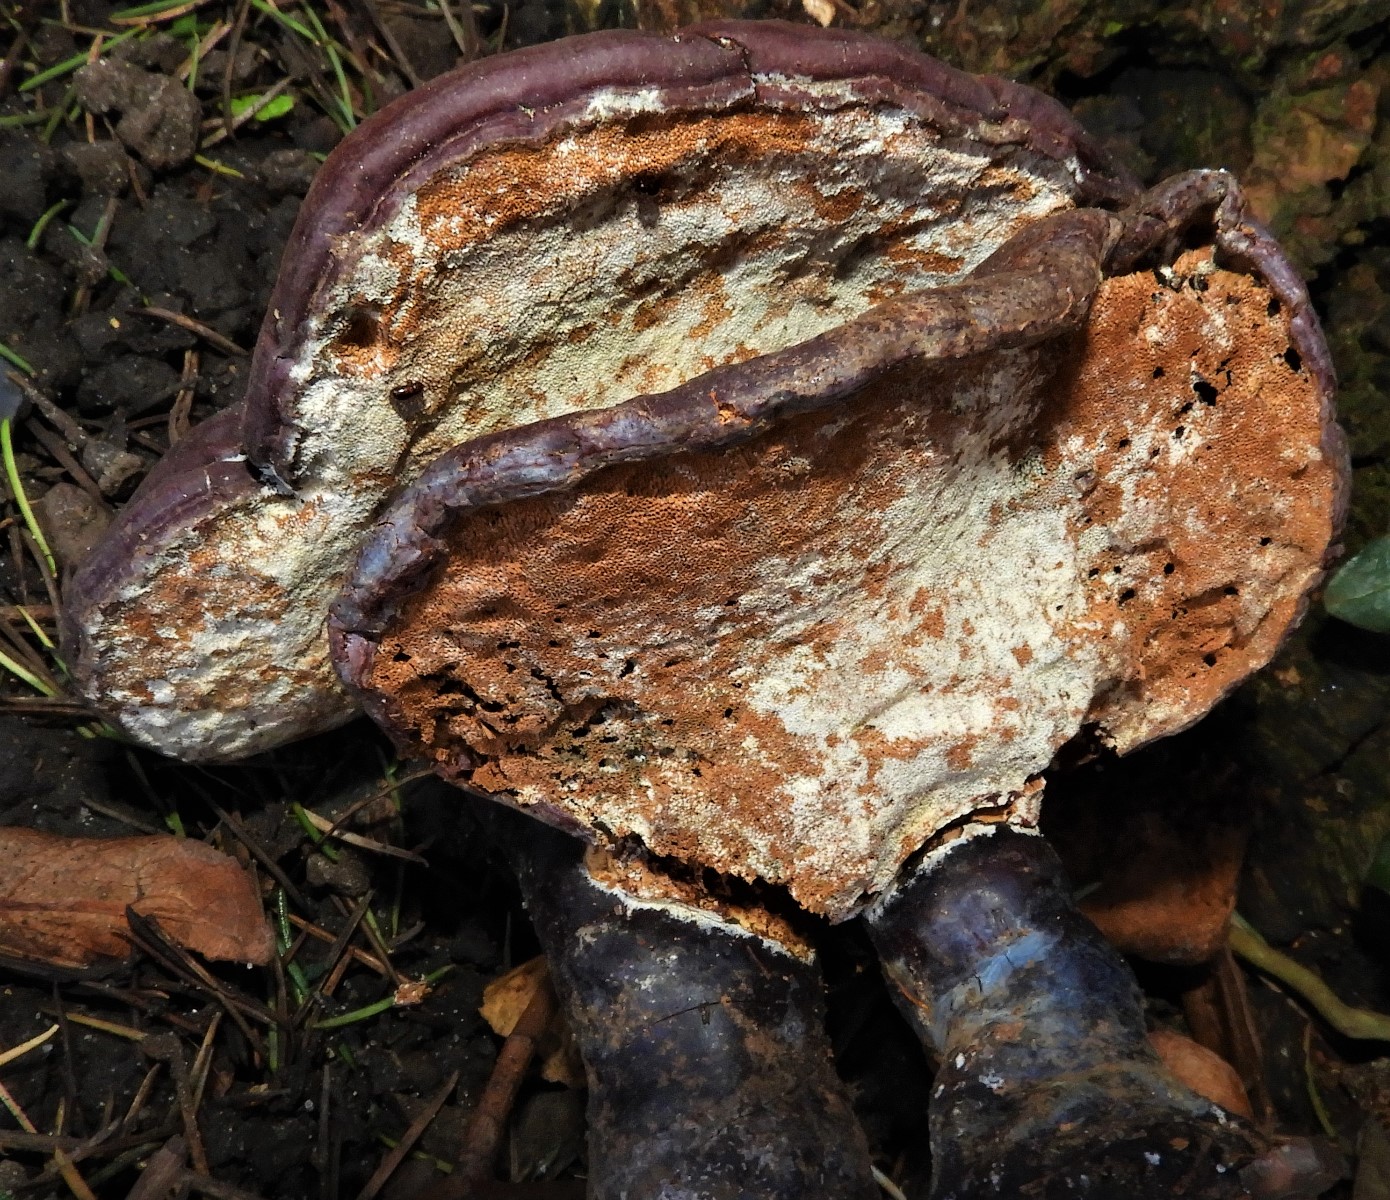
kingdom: Fungi
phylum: Basidiomycota
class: Agaricomycetes
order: Polyporales
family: Polyporaceae
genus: Ganoderma
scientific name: Ganoderma lucidum
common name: skinnende lakporesvamp
